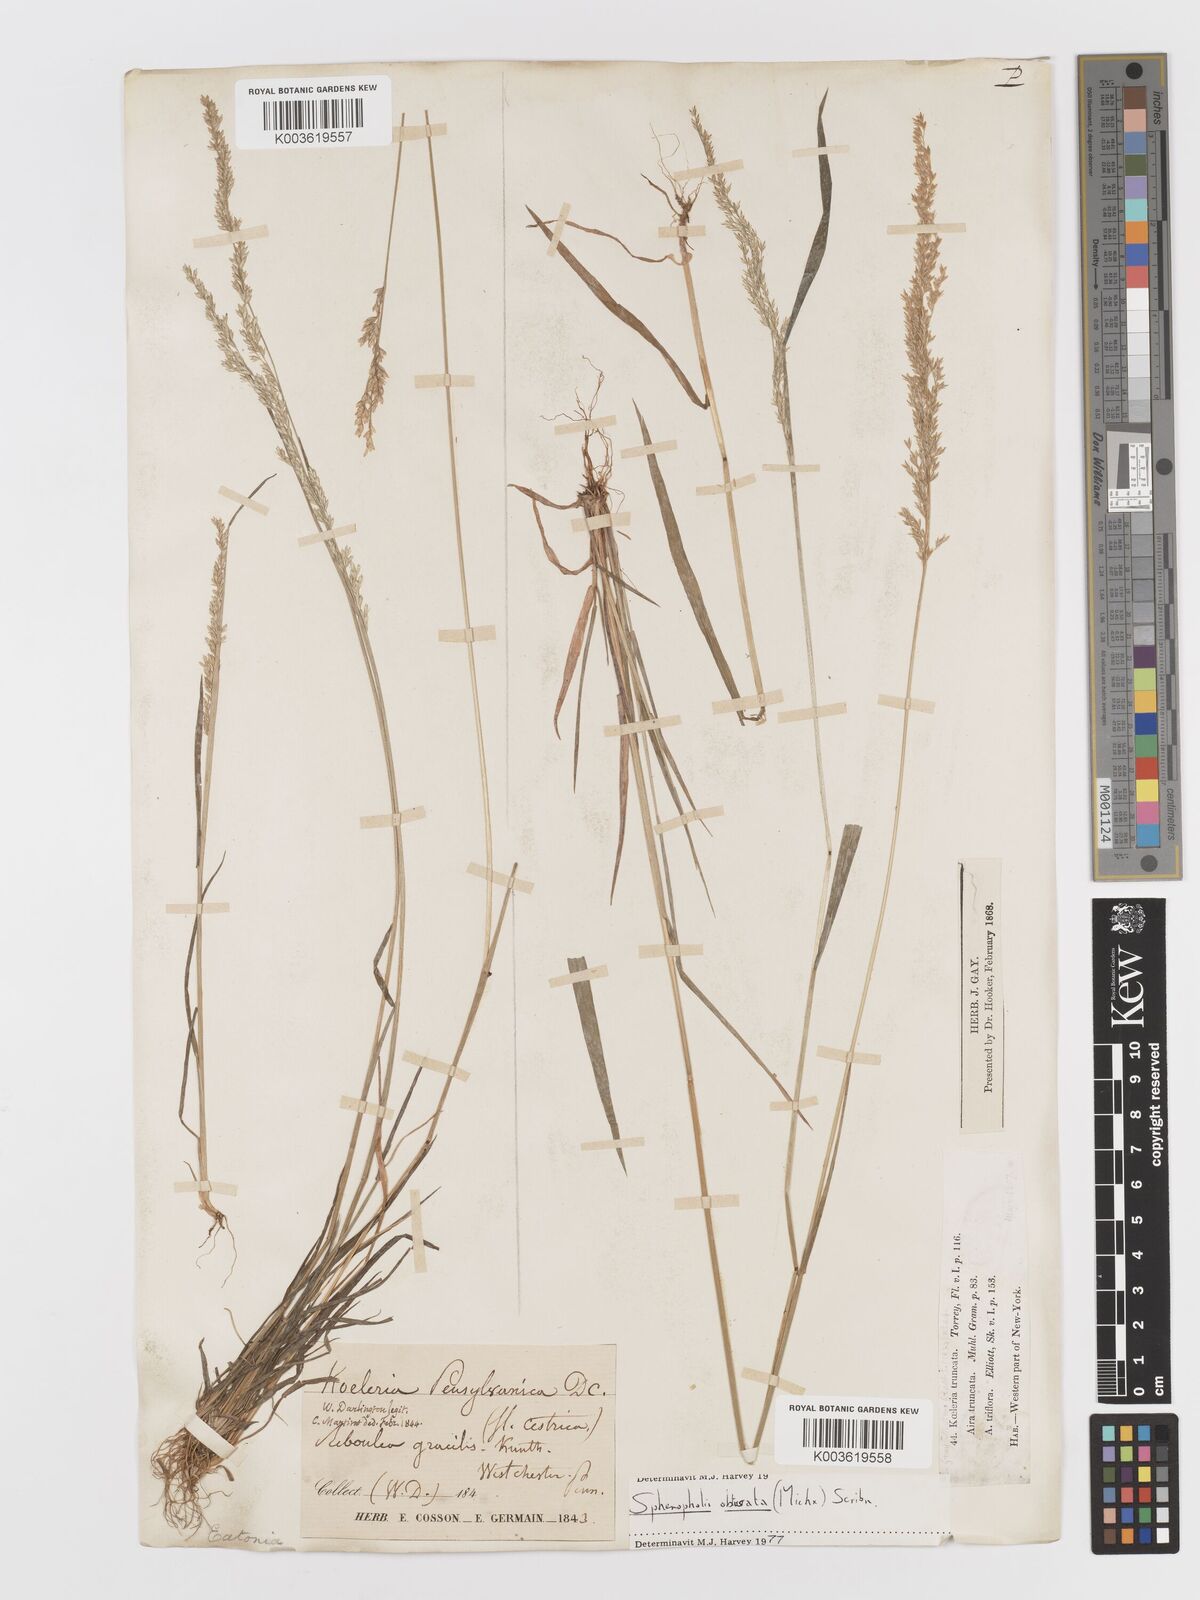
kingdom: Plantae
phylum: Tracheophyta
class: Liliopsida
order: Poales
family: Poaceae
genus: Sphenopholis
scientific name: Sphenopholis obtusata
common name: Prairie grass
